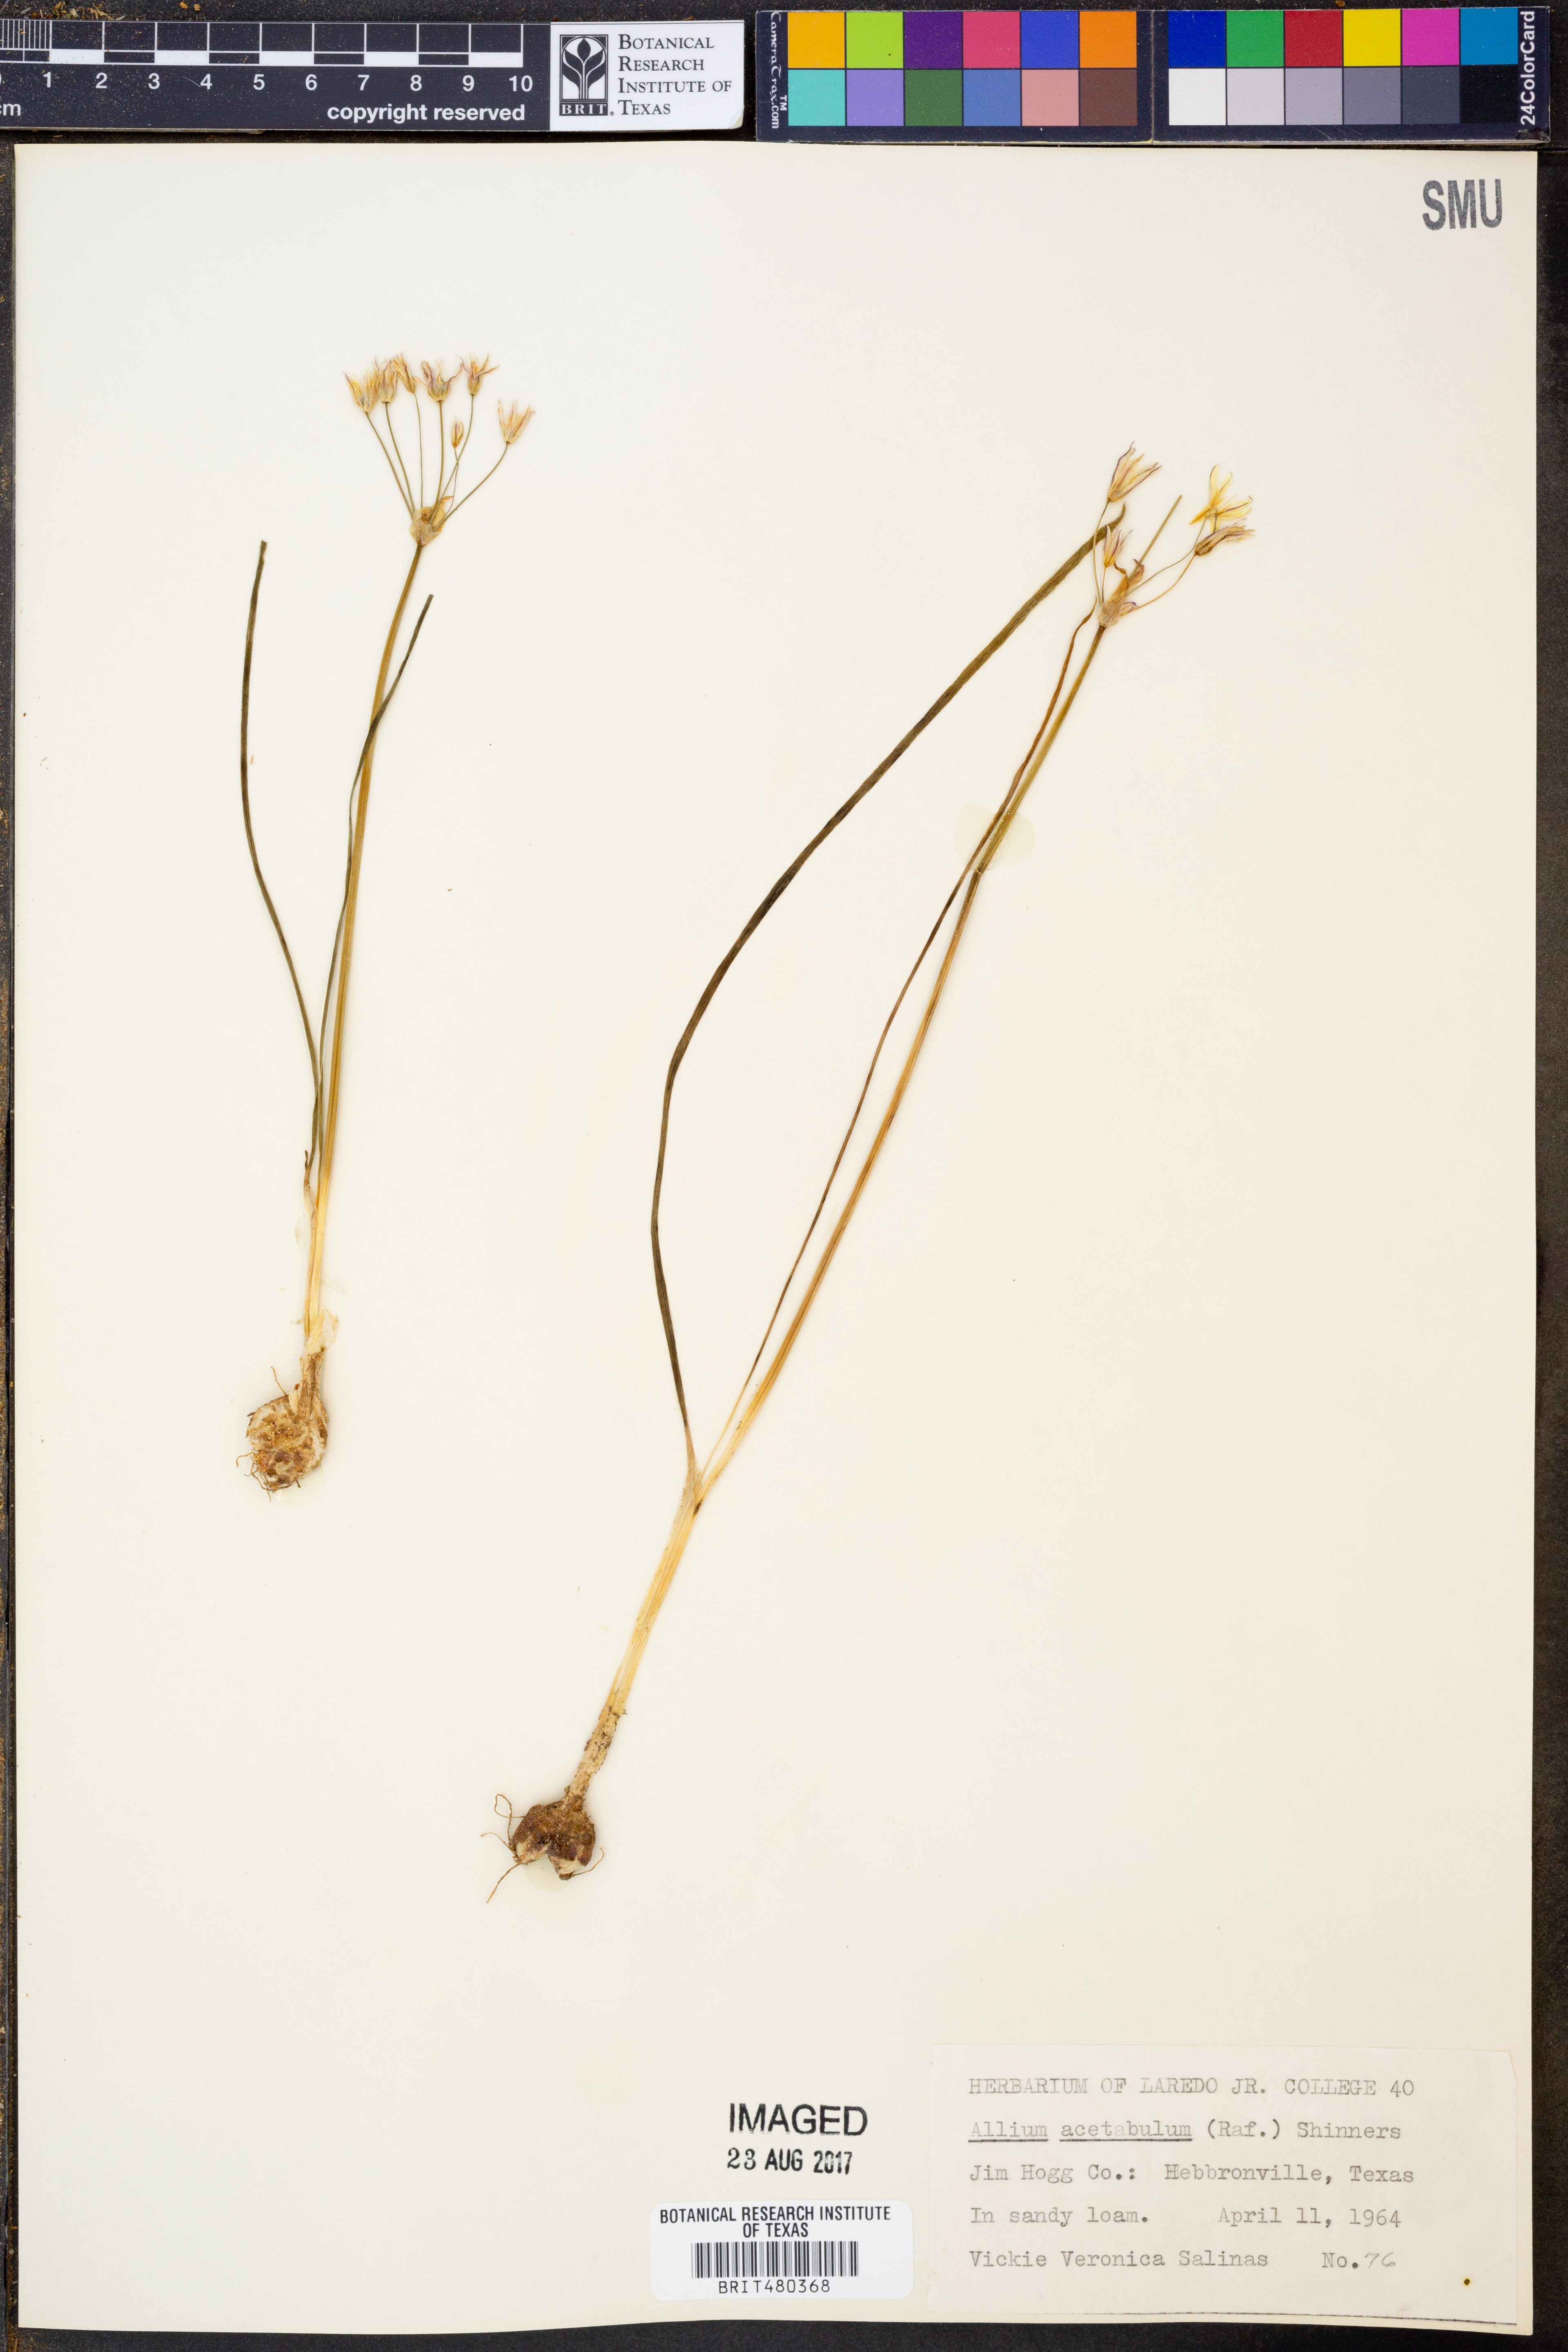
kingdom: Plantae
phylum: Tracheophyta
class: Liliopsida
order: Asparagales
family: Amaryllidaceae
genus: Allium
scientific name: Allium canadense
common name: Meadow garlic
